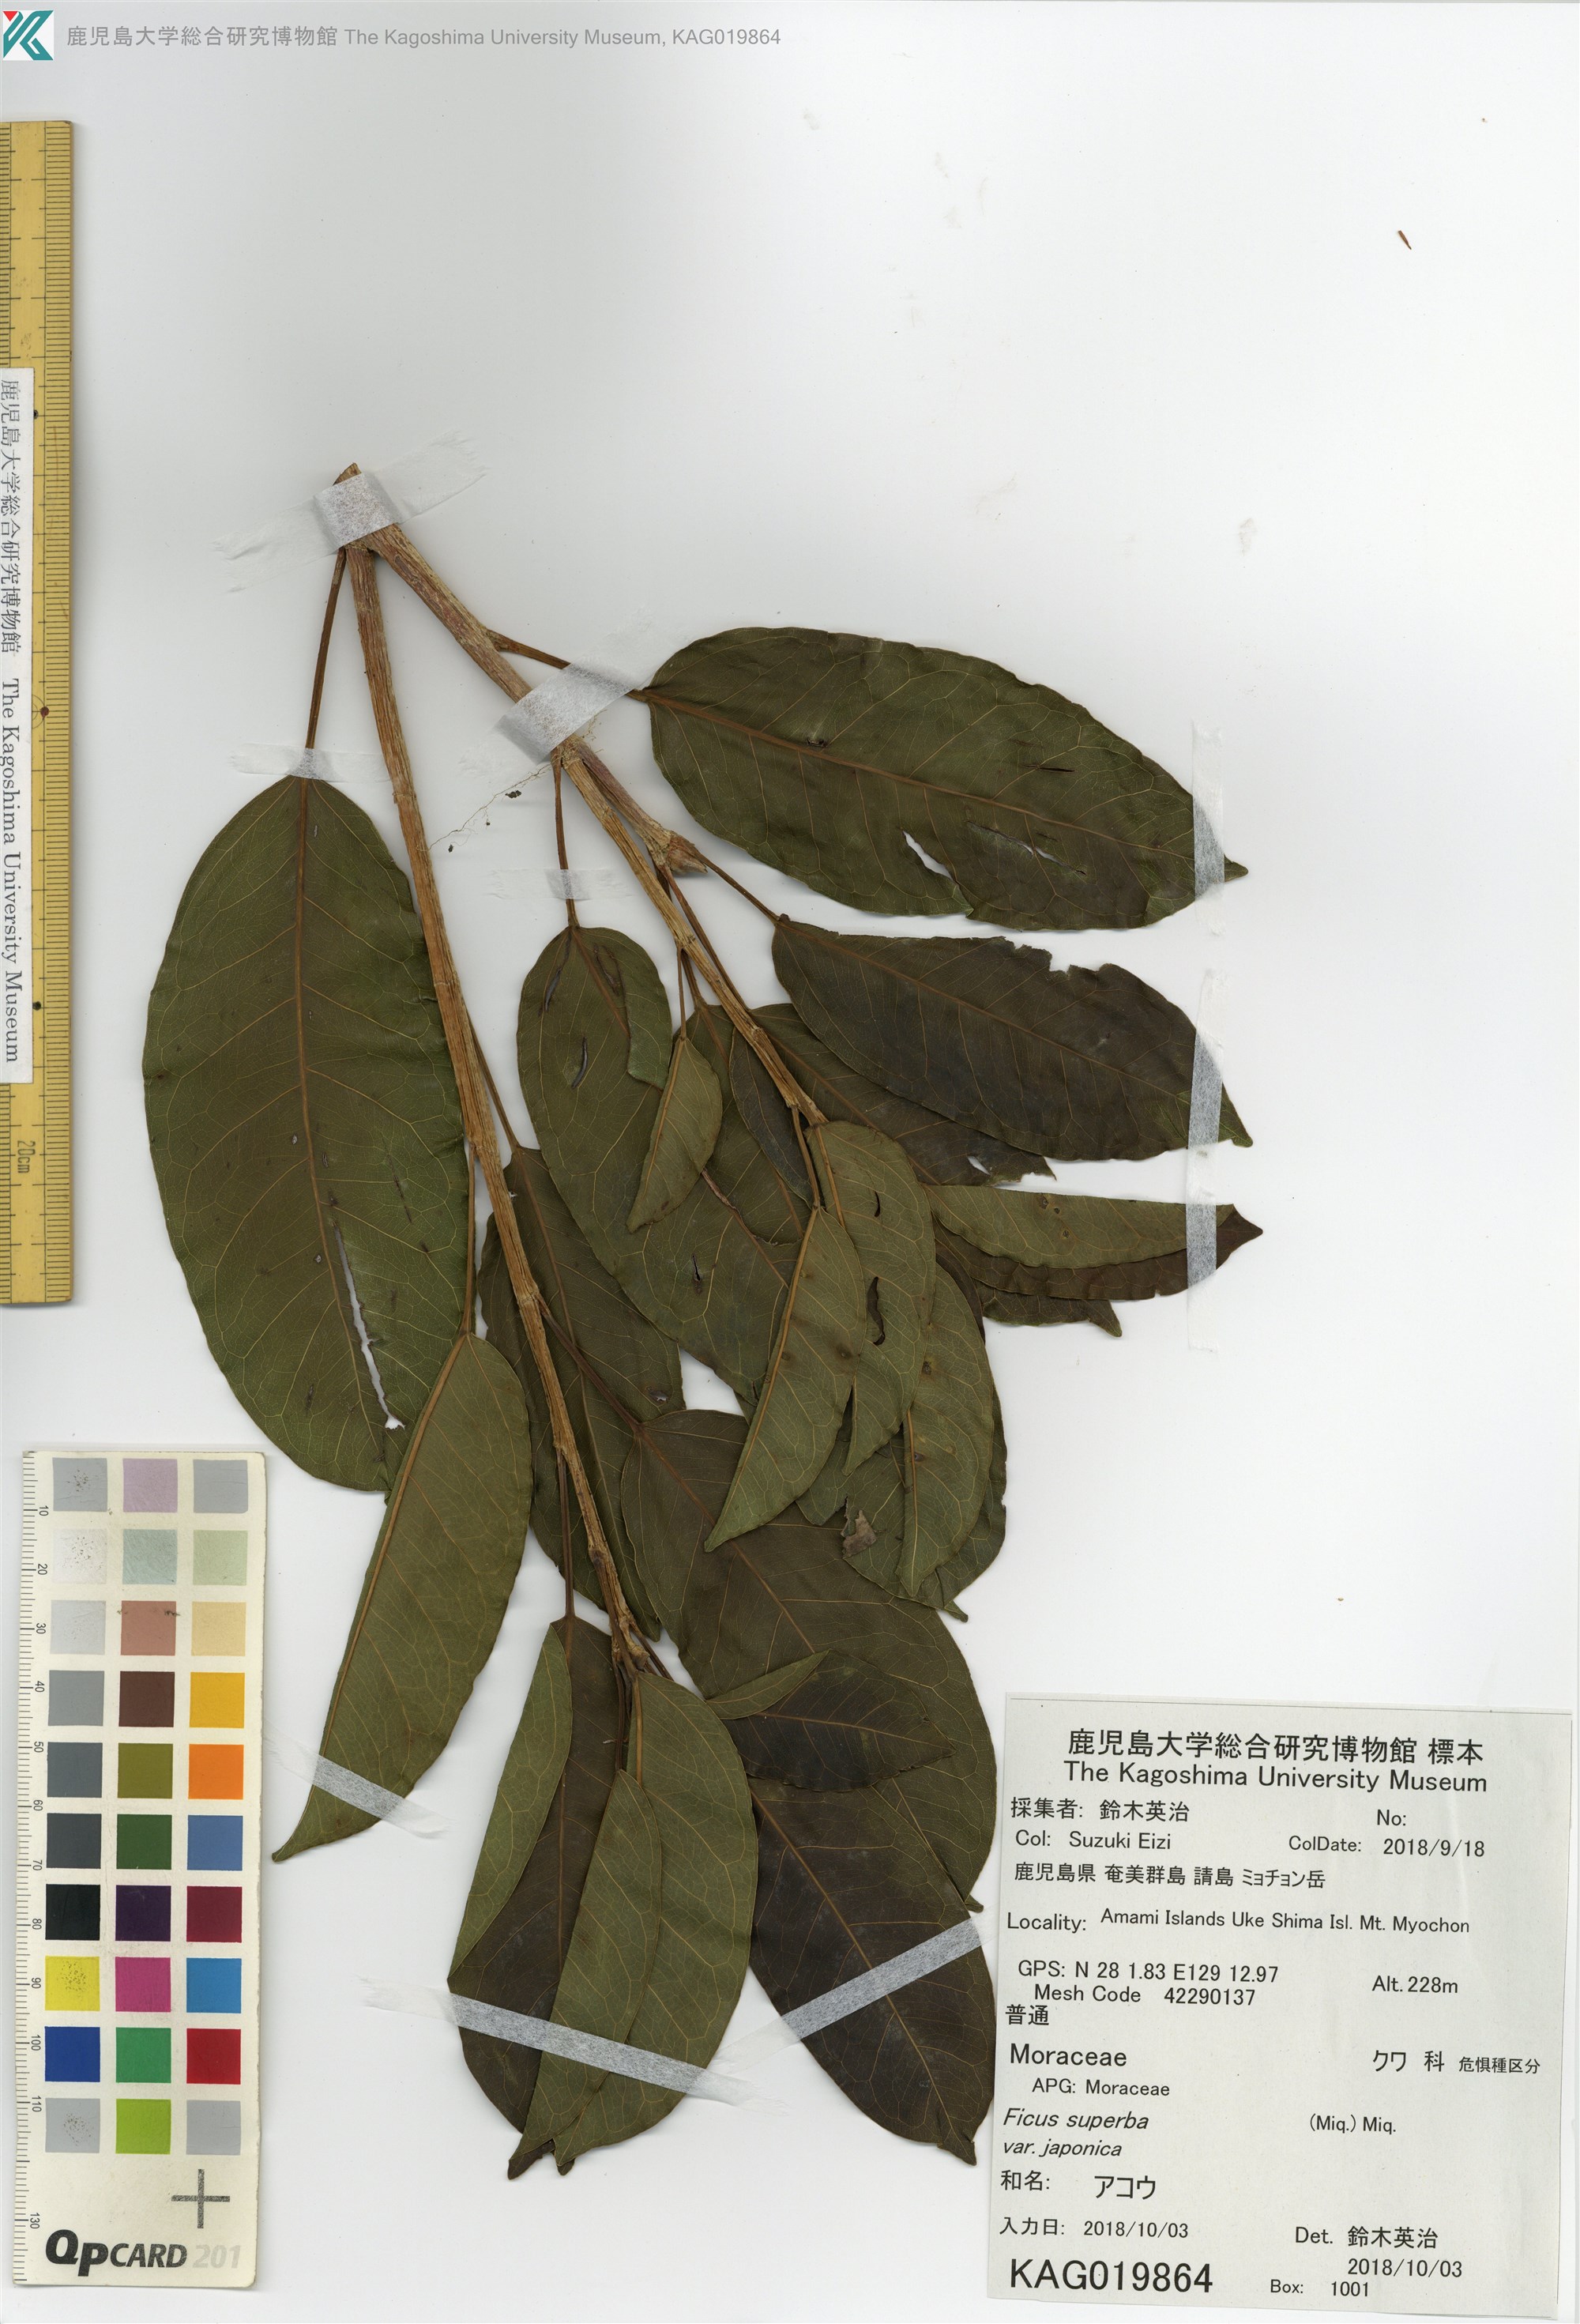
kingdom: Plantae
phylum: Tracheophyta
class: Magnoliopsida
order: Rosales
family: Moraceae
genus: Ficus
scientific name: Ficus subpisocarpa
